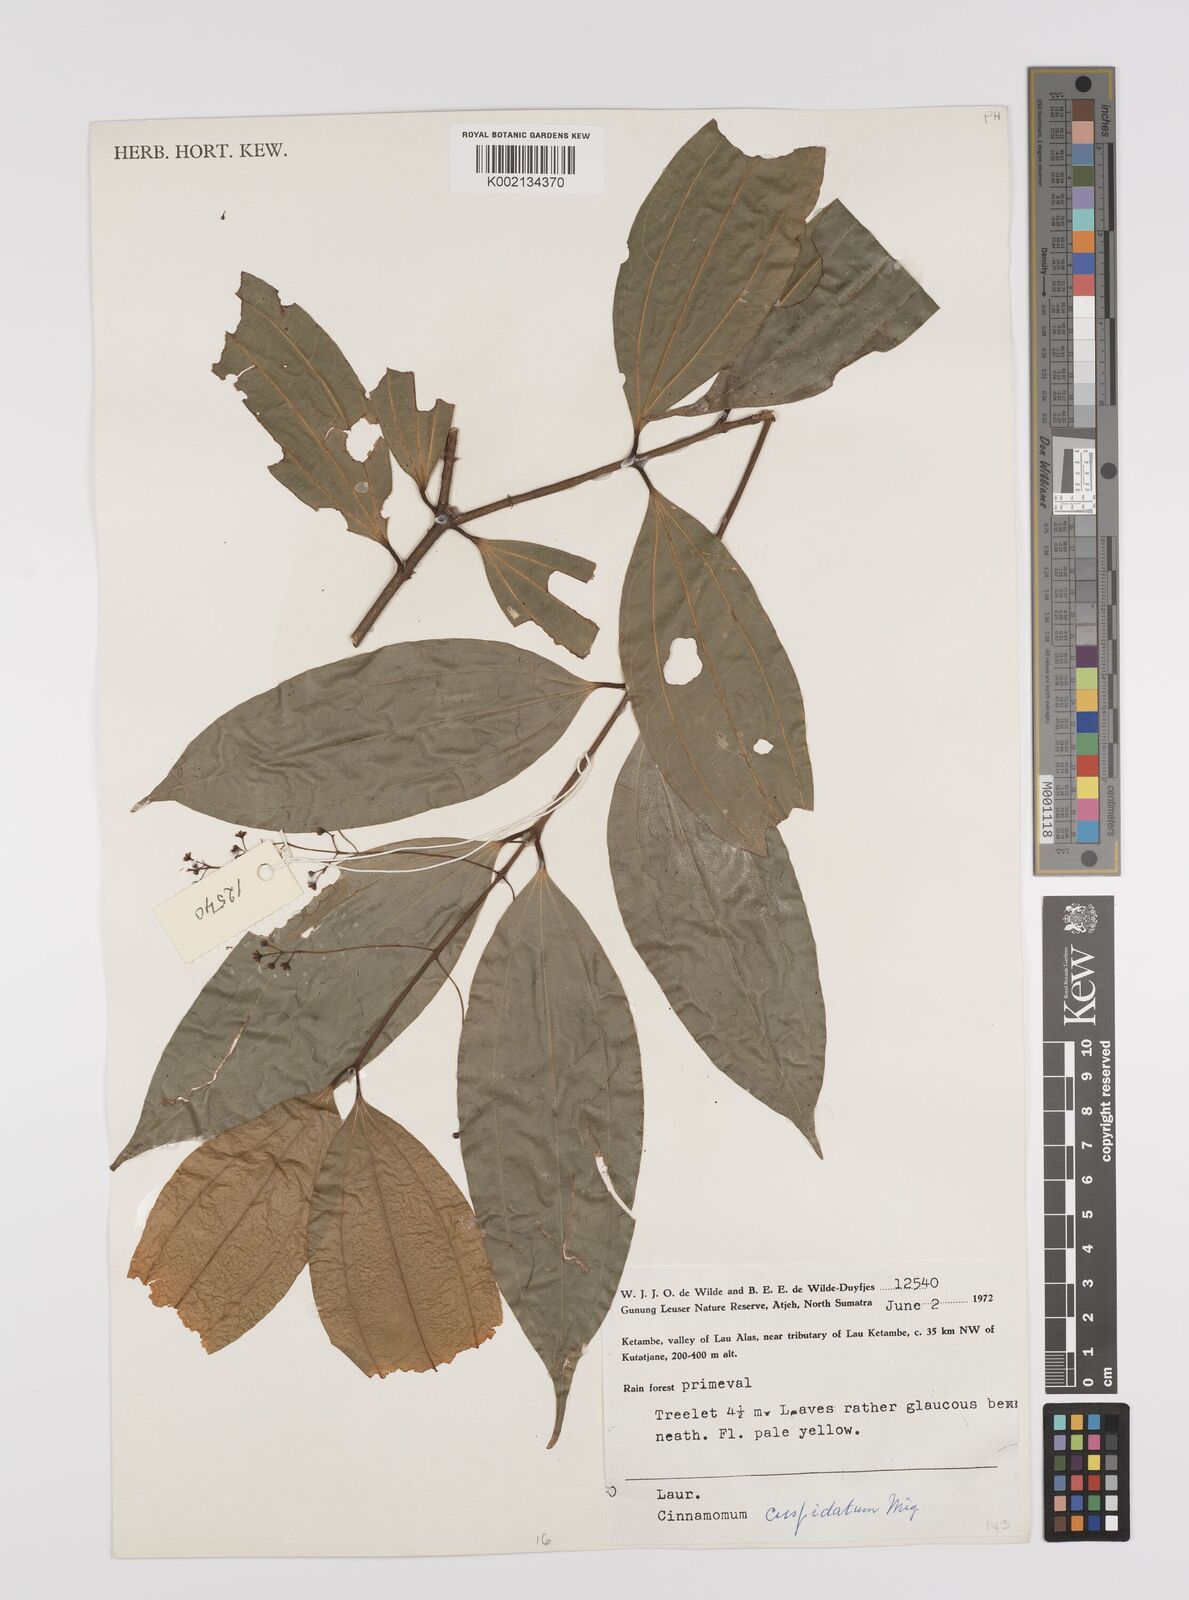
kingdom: Plantae
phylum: Tracheophyta
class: Magnoliopsida
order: Laurales
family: Lauraceae
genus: Cinnamomum
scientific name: Cinnamomum cuspidatum
